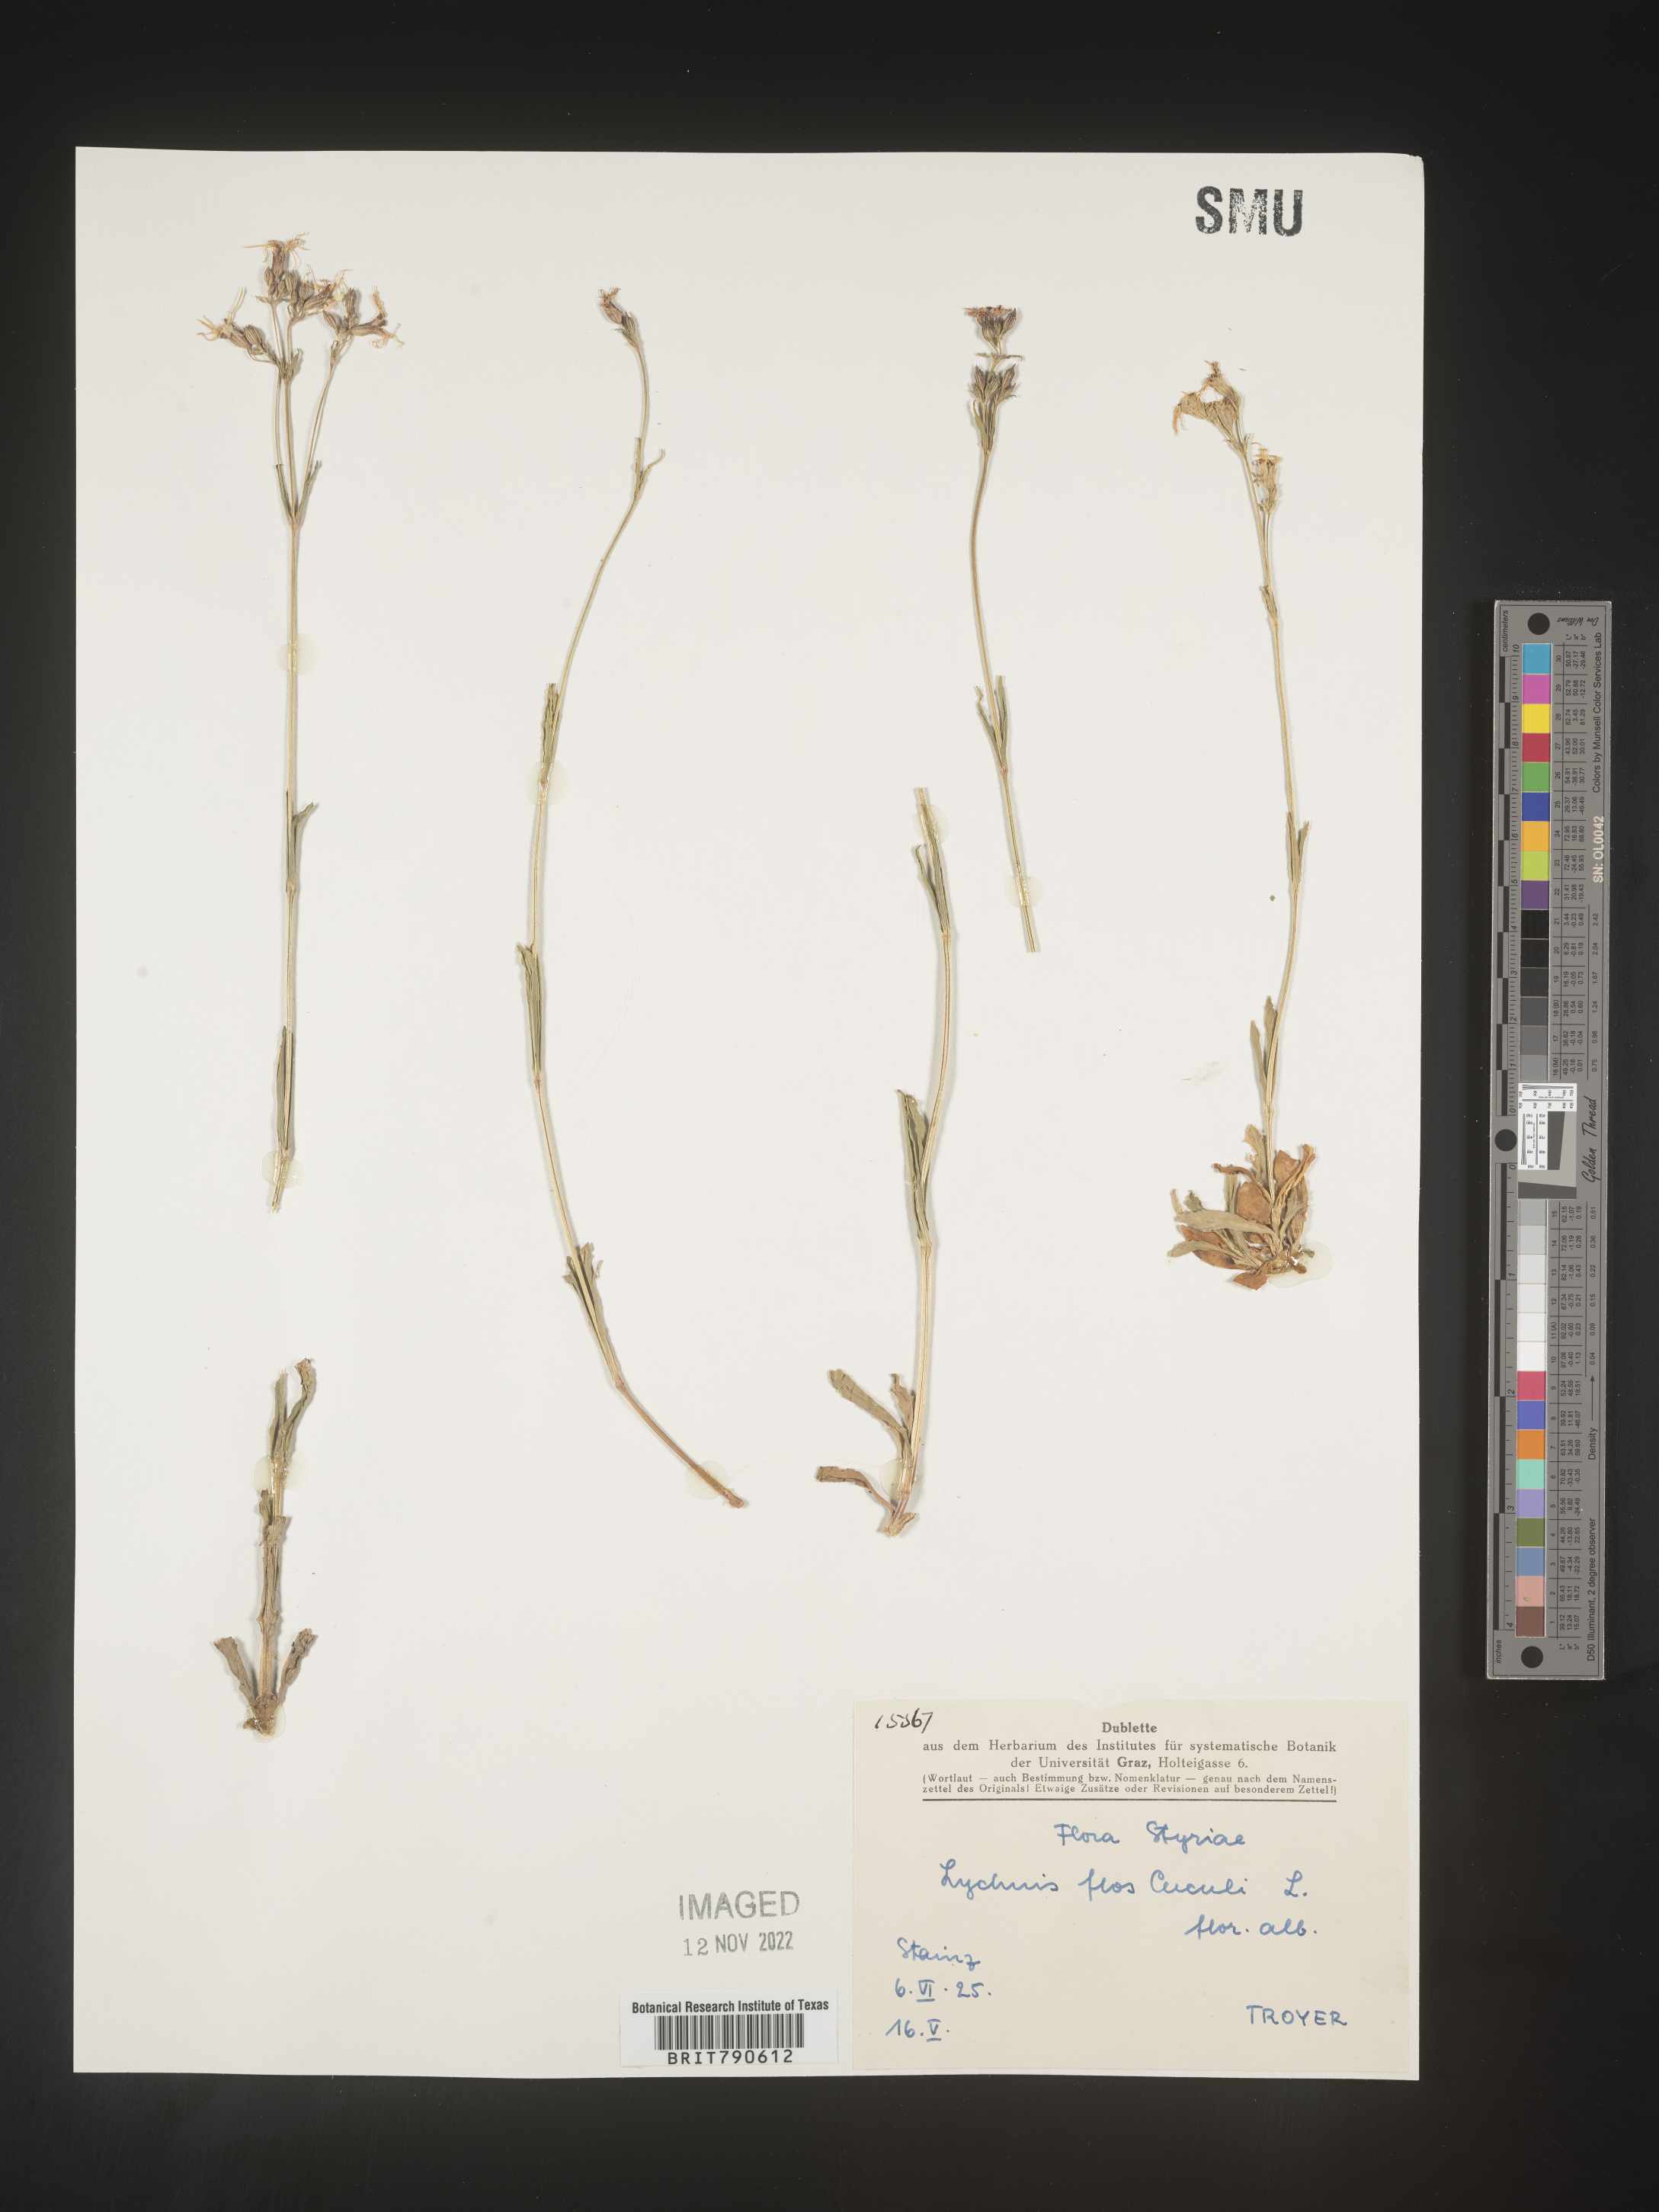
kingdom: Plantae
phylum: Tracheophyta
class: Magnoliopsida
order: Caryophyllales
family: Caryophyllaceae
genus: Silene
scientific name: Silene
